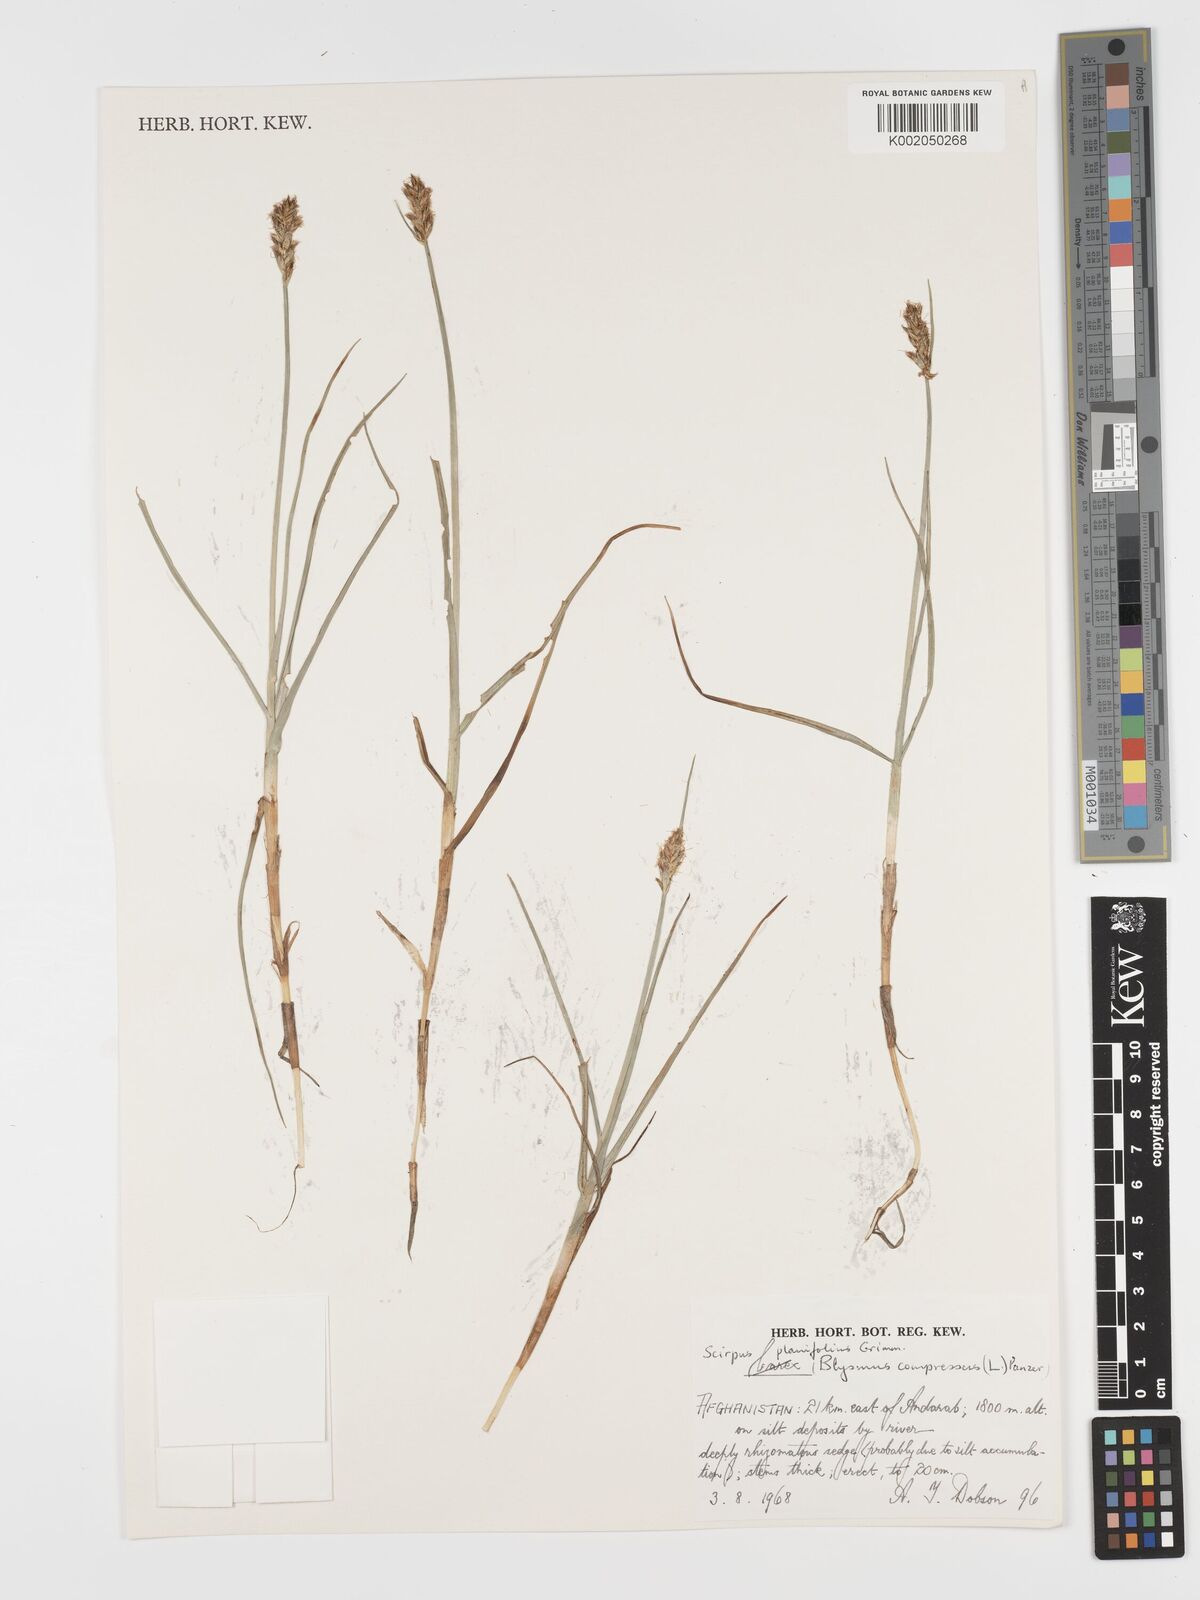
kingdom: Plantae
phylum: Tracheophyta
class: Liliopsida
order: Poales
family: Cyperaceae
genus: Blysmus
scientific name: Blysmus compressus
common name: Flat-sedge
